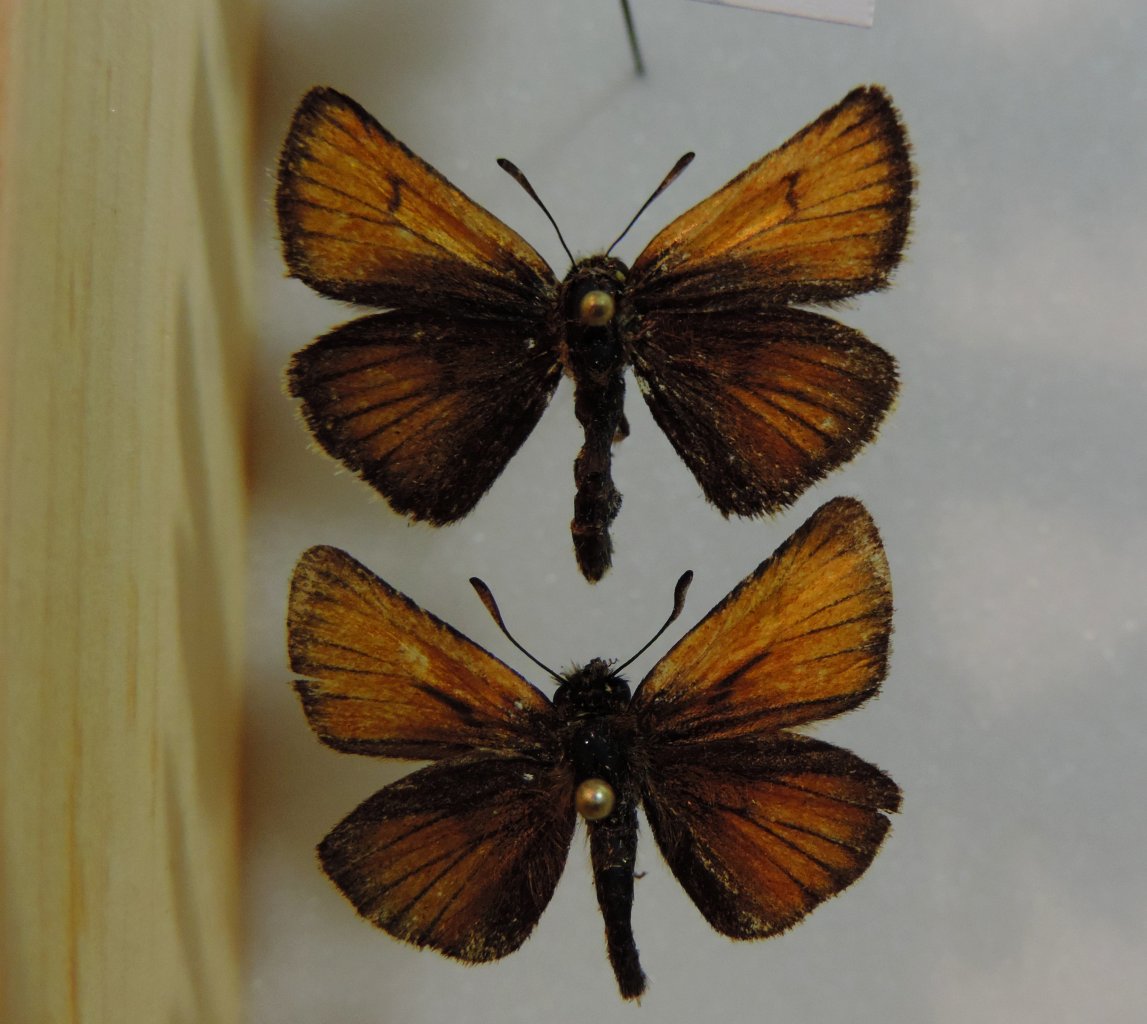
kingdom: Animalia
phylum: Arthropoda
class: Insecta
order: Lepidoptera
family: Hesperiidae
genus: Thymelicus
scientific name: Thymelicus lineola
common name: European Skipper
